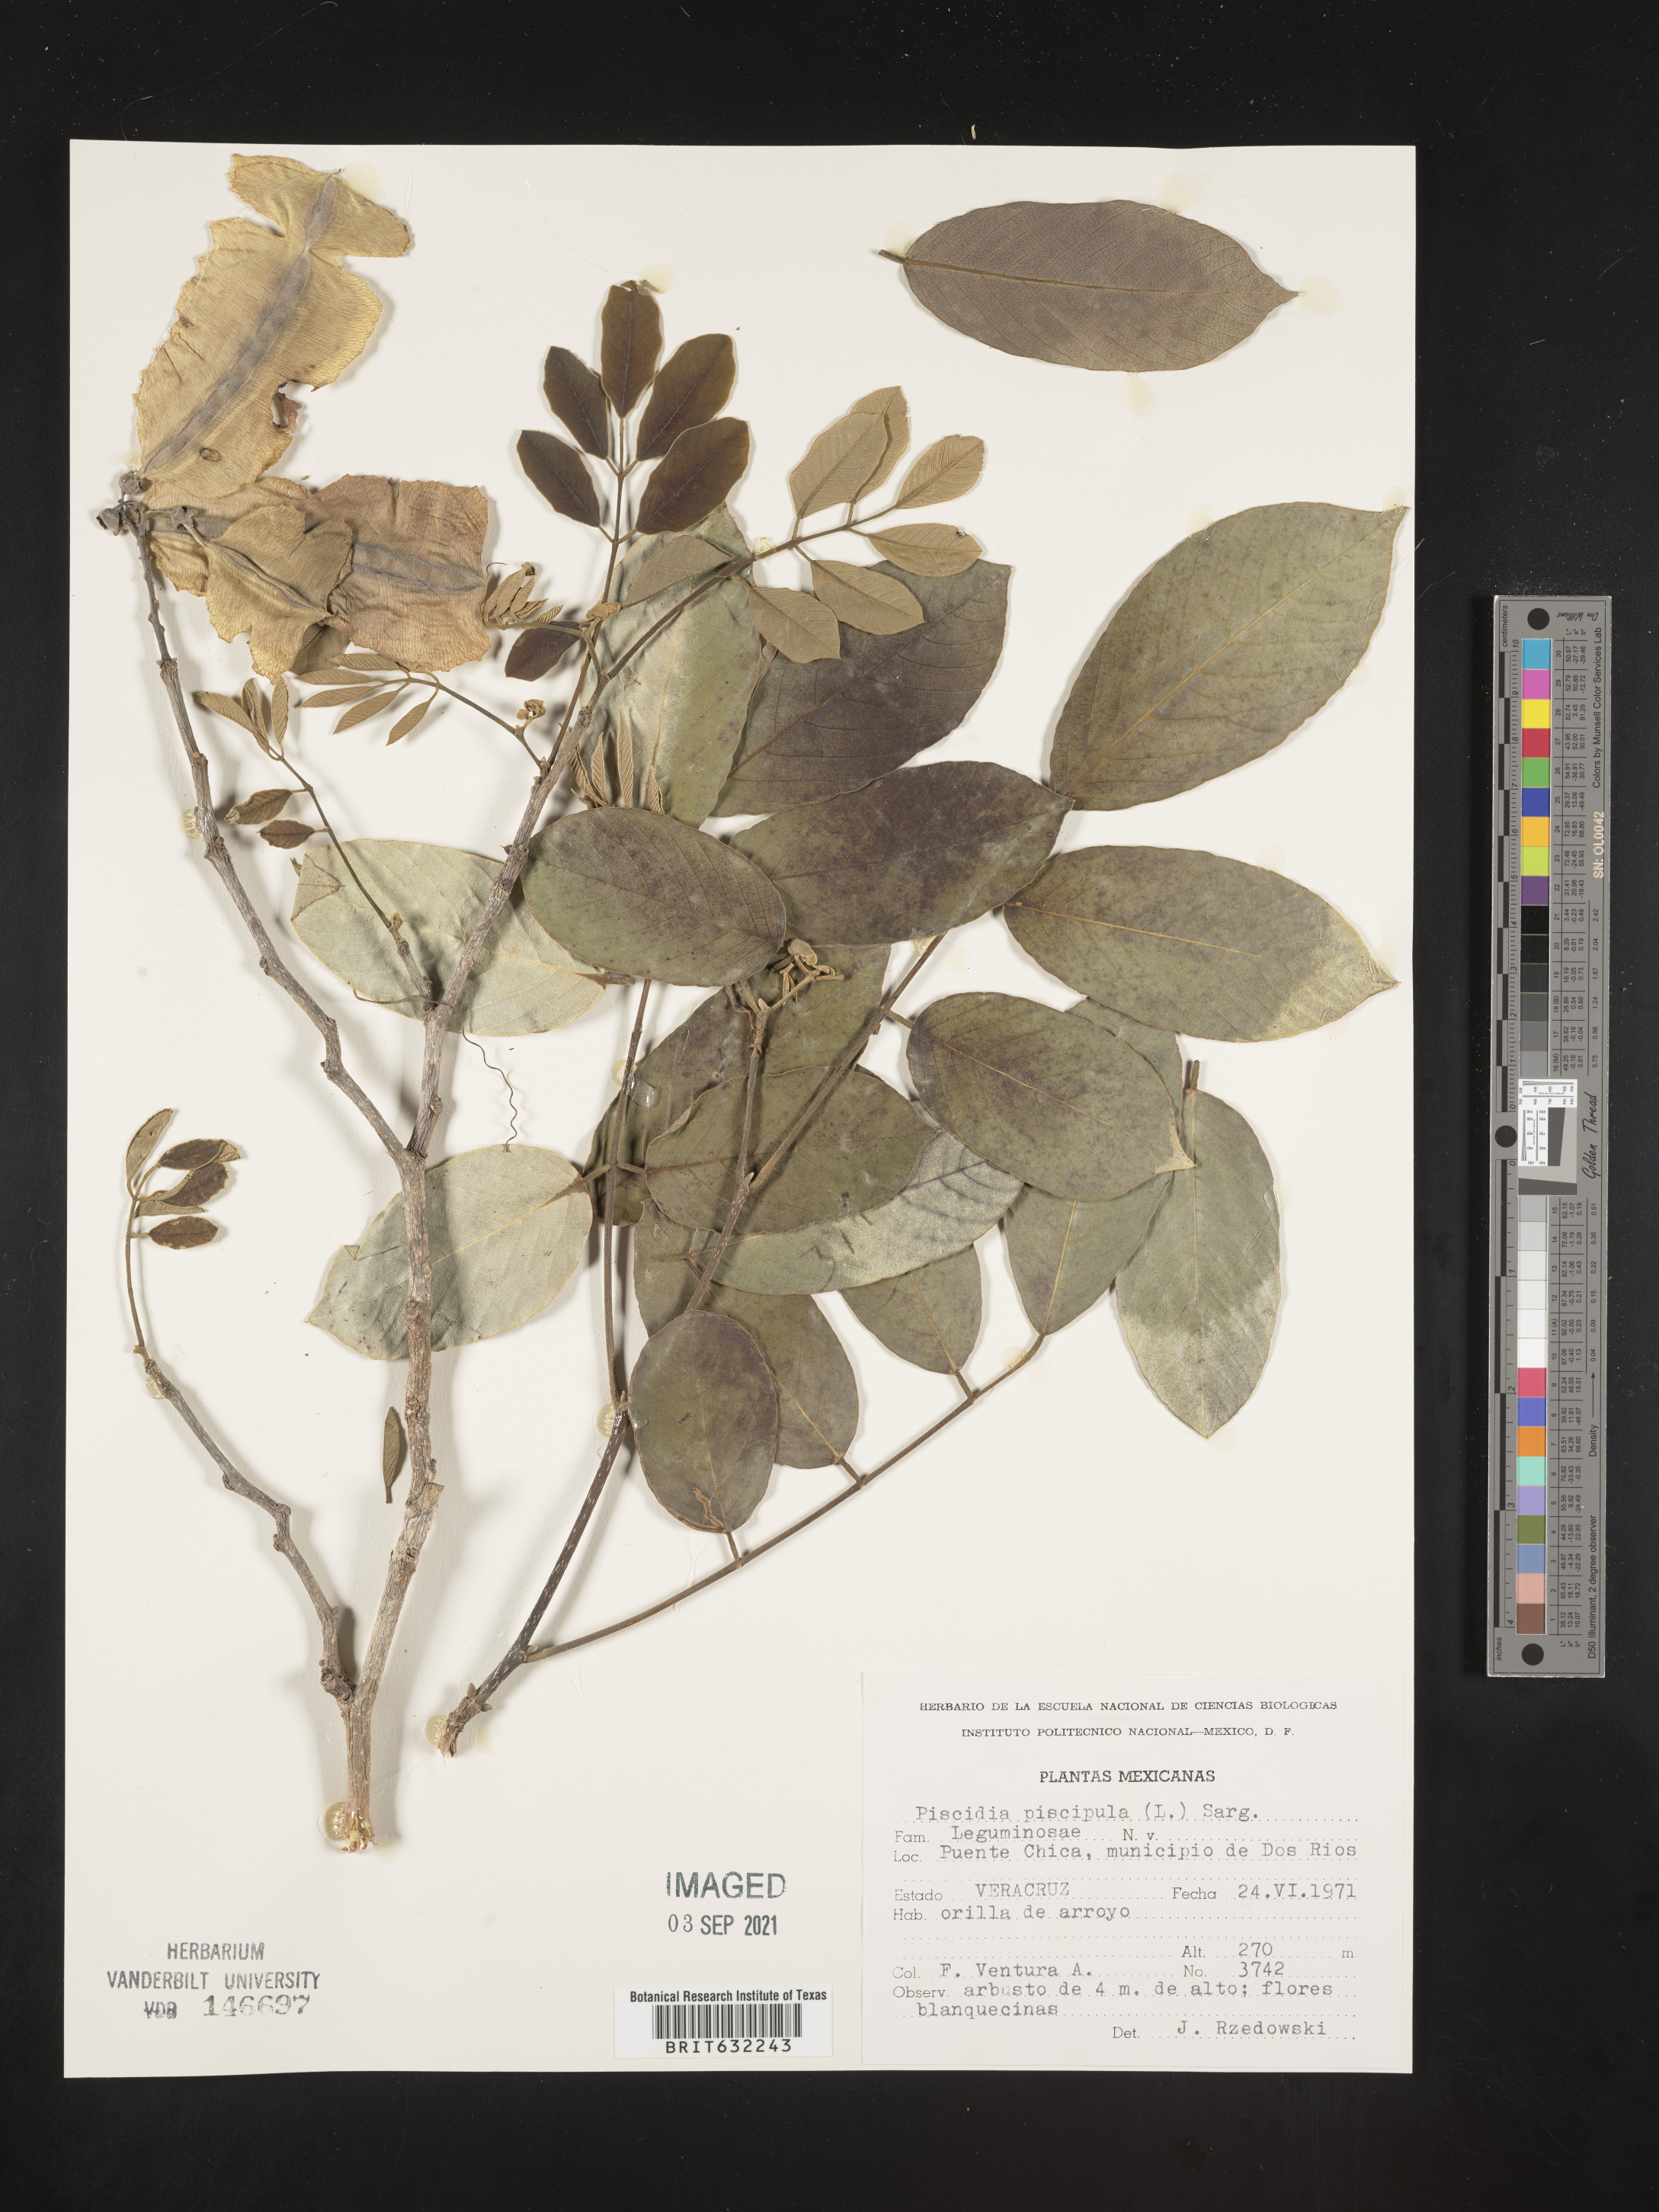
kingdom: Plantae
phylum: Tracheophyta
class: Magnoliopsida
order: Fabales
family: Fabaceae
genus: Piscidia
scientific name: Piscidia
